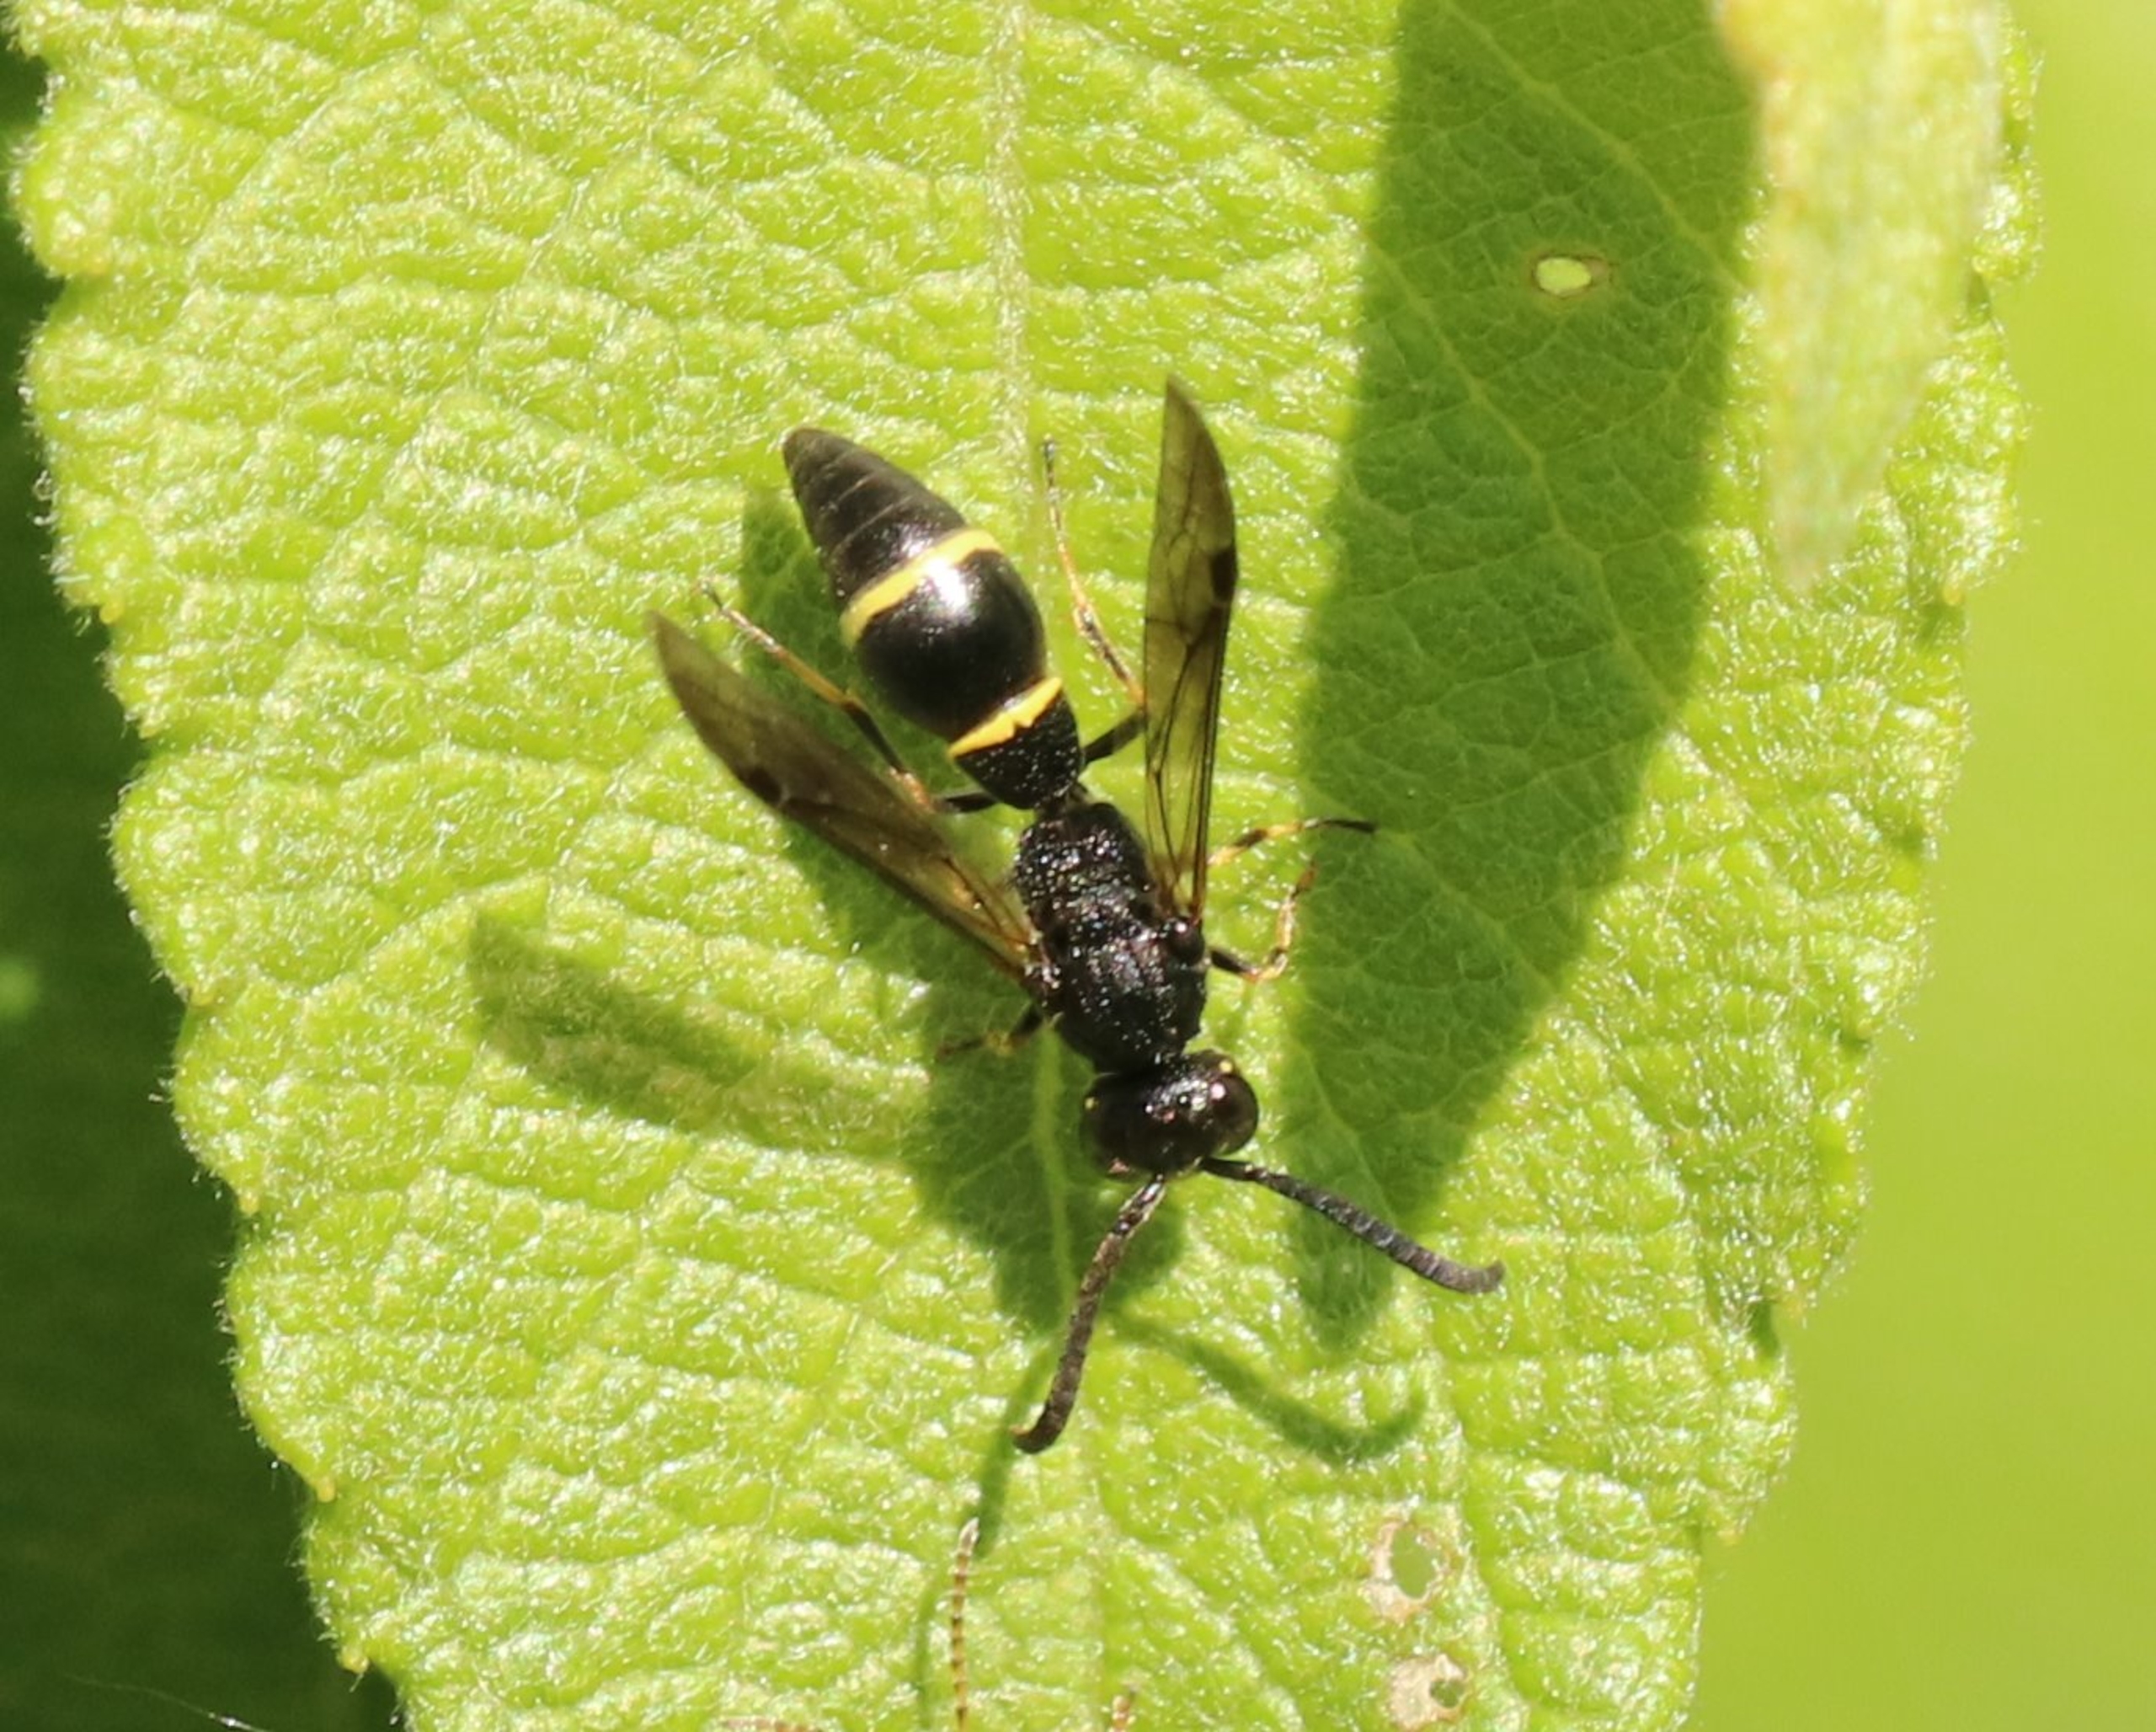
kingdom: Animalia
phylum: Arthropoda
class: Insecta
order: Hymenoptera
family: Eumenidae
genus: Symmorphus
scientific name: Symmorphus
